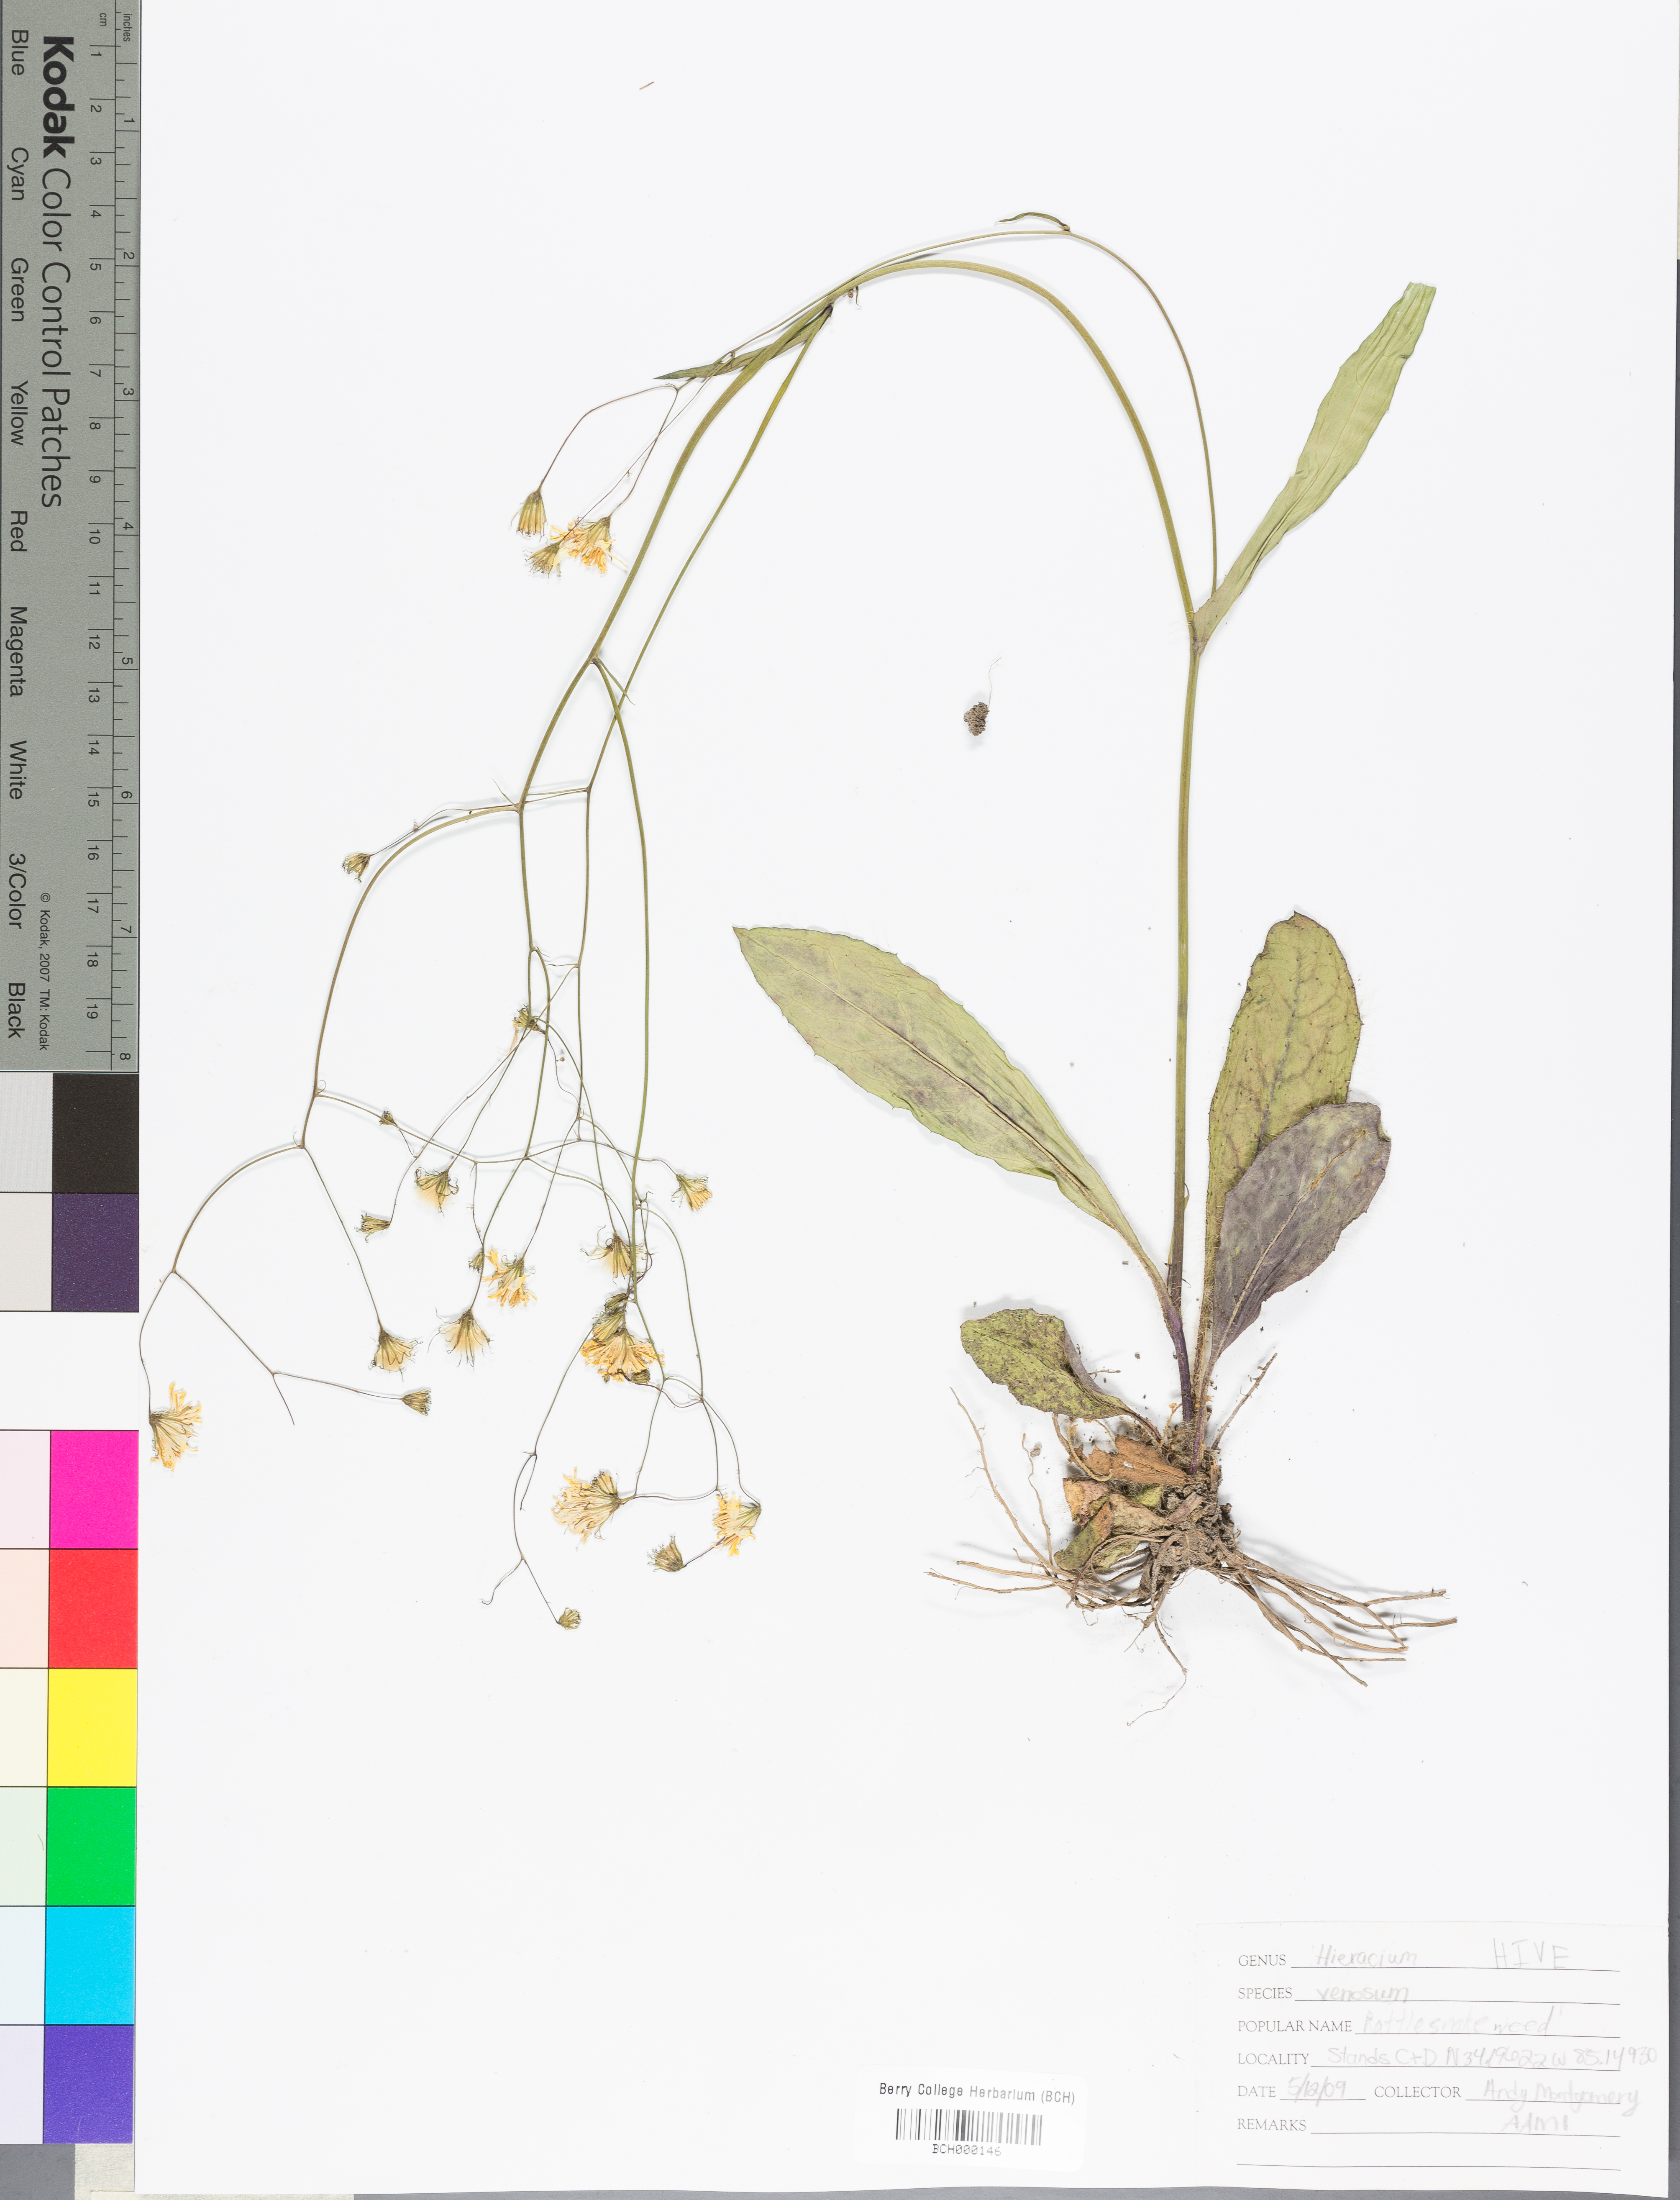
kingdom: Plantae
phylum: Tracheophyta
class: Magnoliopsida
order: Asterales
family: Asteraceae
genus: Hieracium
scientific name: Hieracium venosum
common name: Rattlesnake hawkweed
